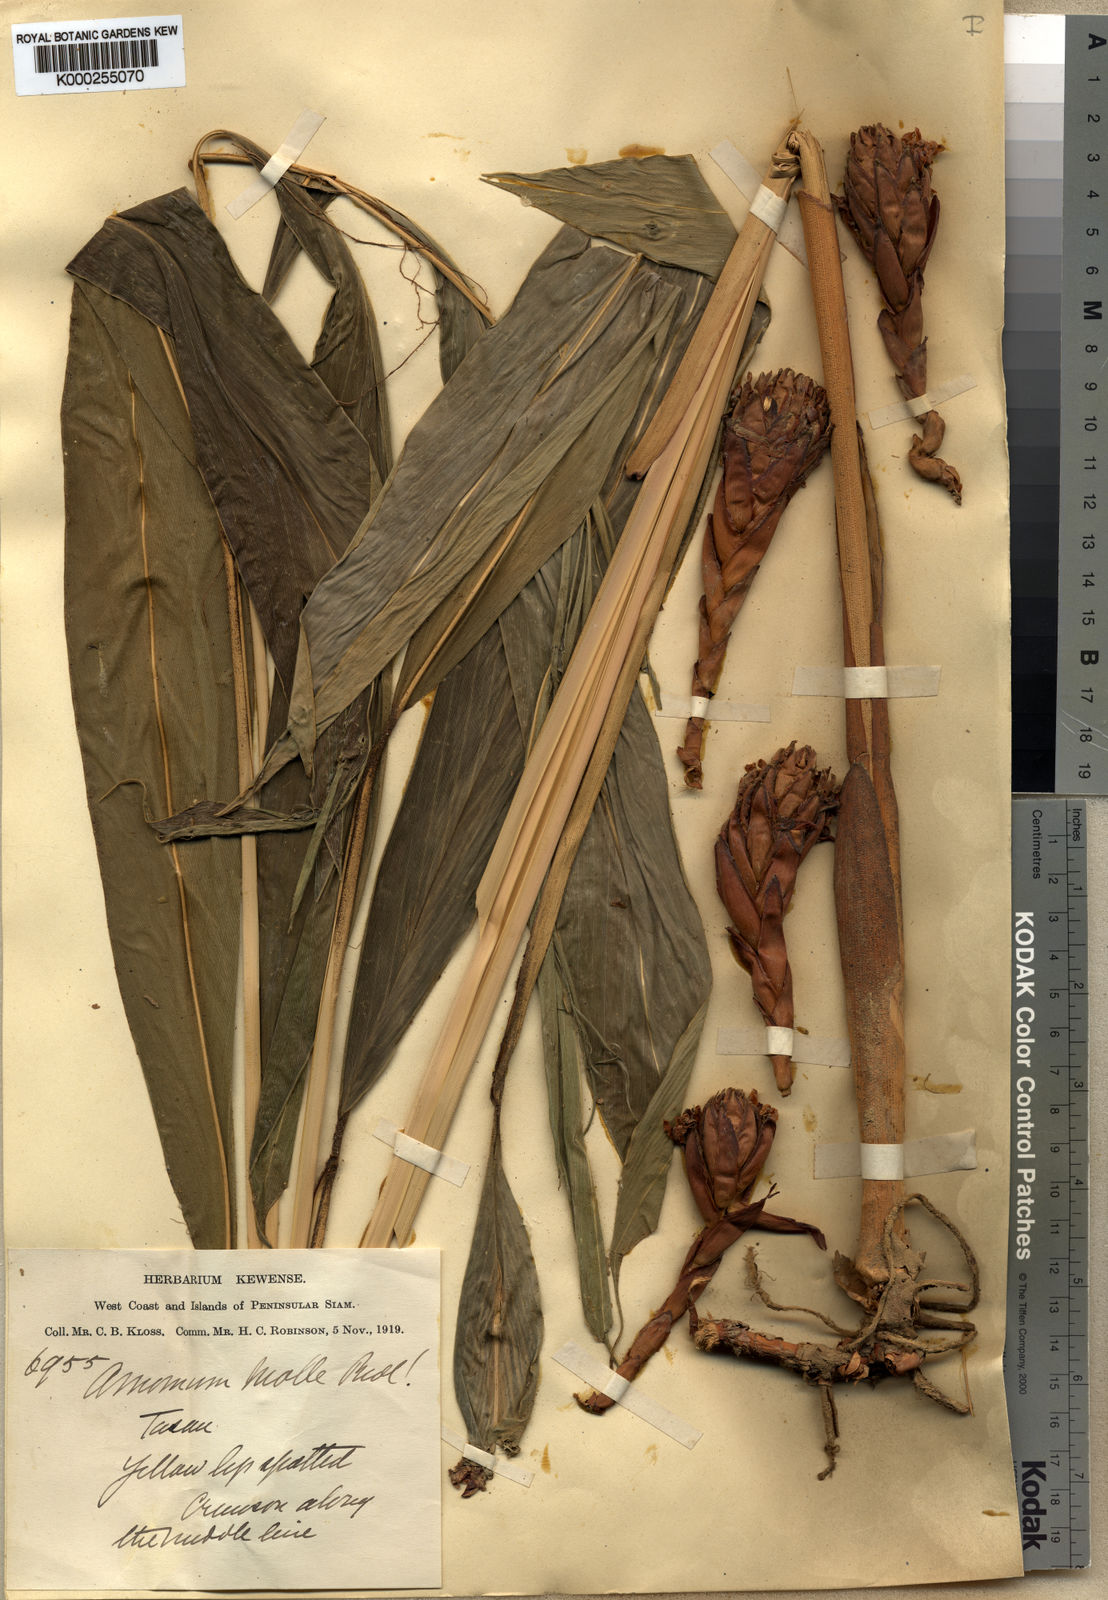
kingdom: Plantae
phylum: Tracheophyta
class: Liliopsida
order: Zingiberales
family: Zingiberaceae
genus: Wurfbainia
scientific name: Wurfbainia mollis
